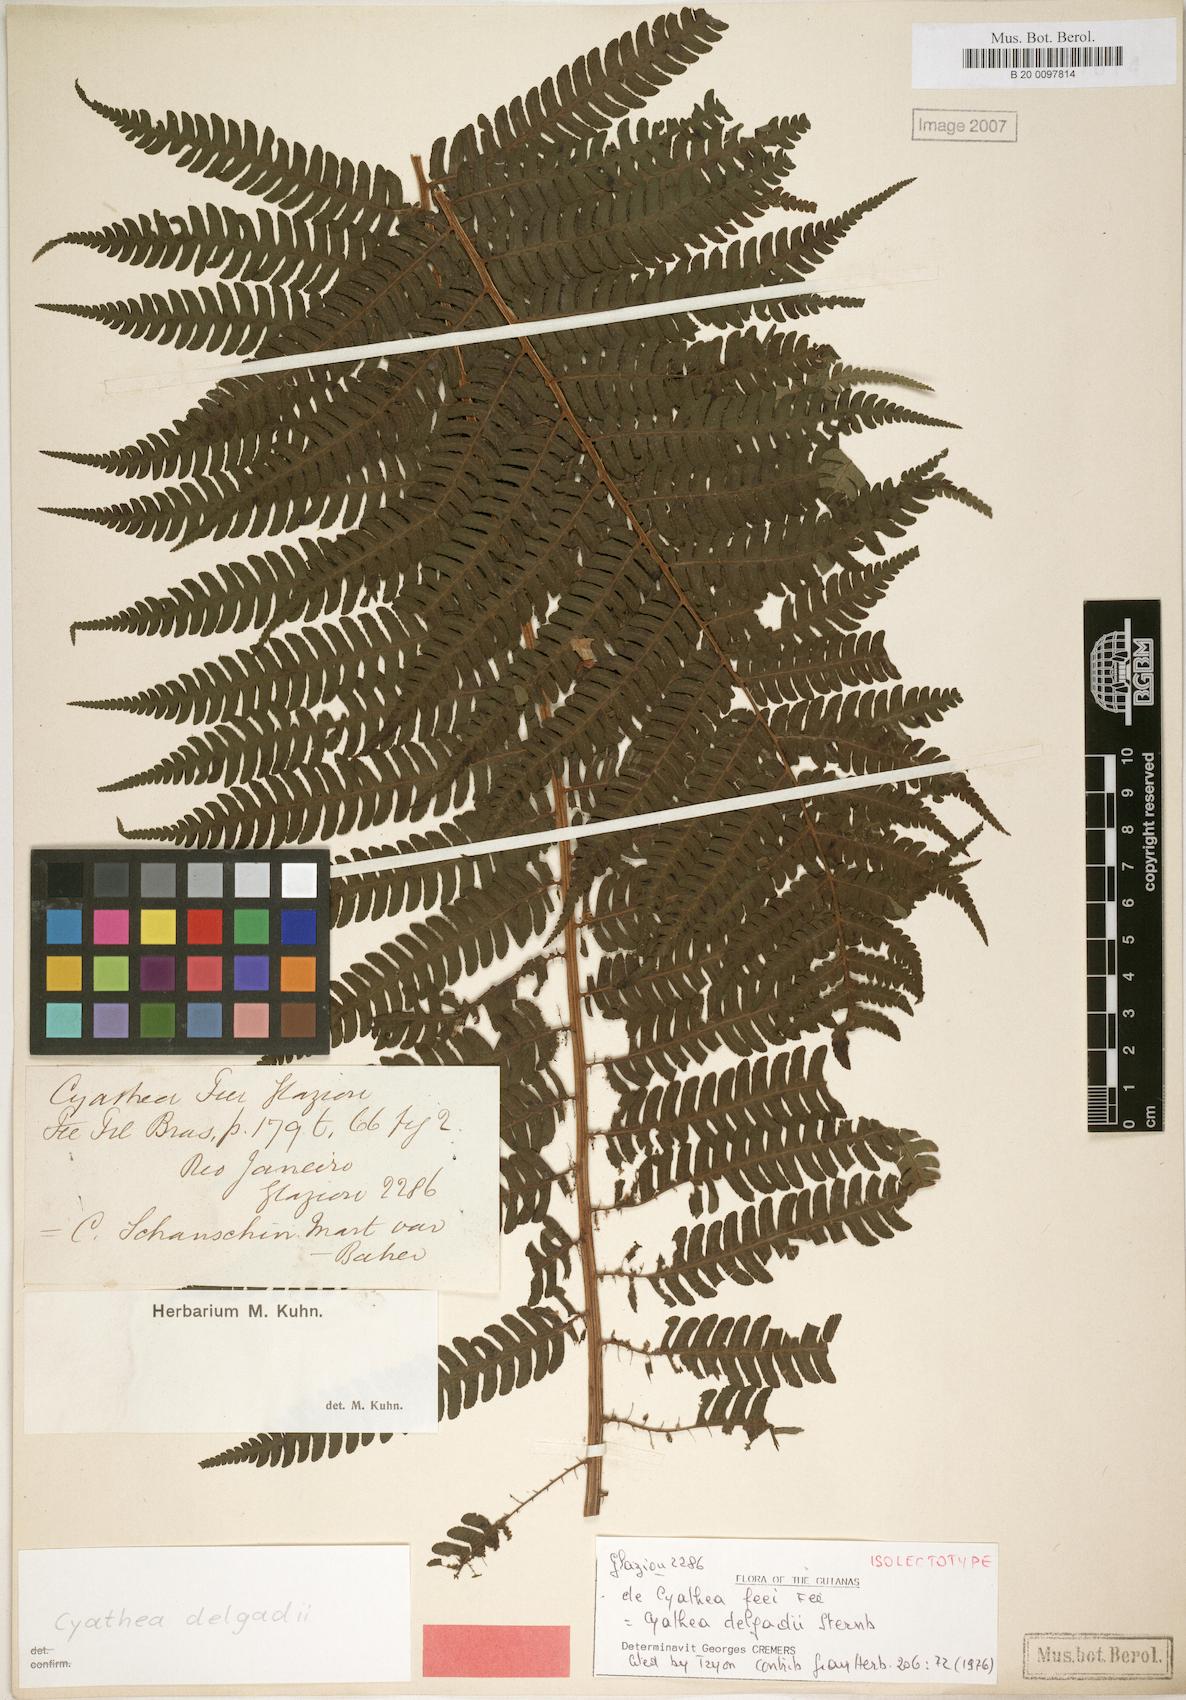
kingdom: Plantae
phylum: Tracheophyta
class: Polypodiopsida
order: Cyatheales
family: Cyatheaceae
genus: Cyathea
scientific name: Cyathea delgadii
